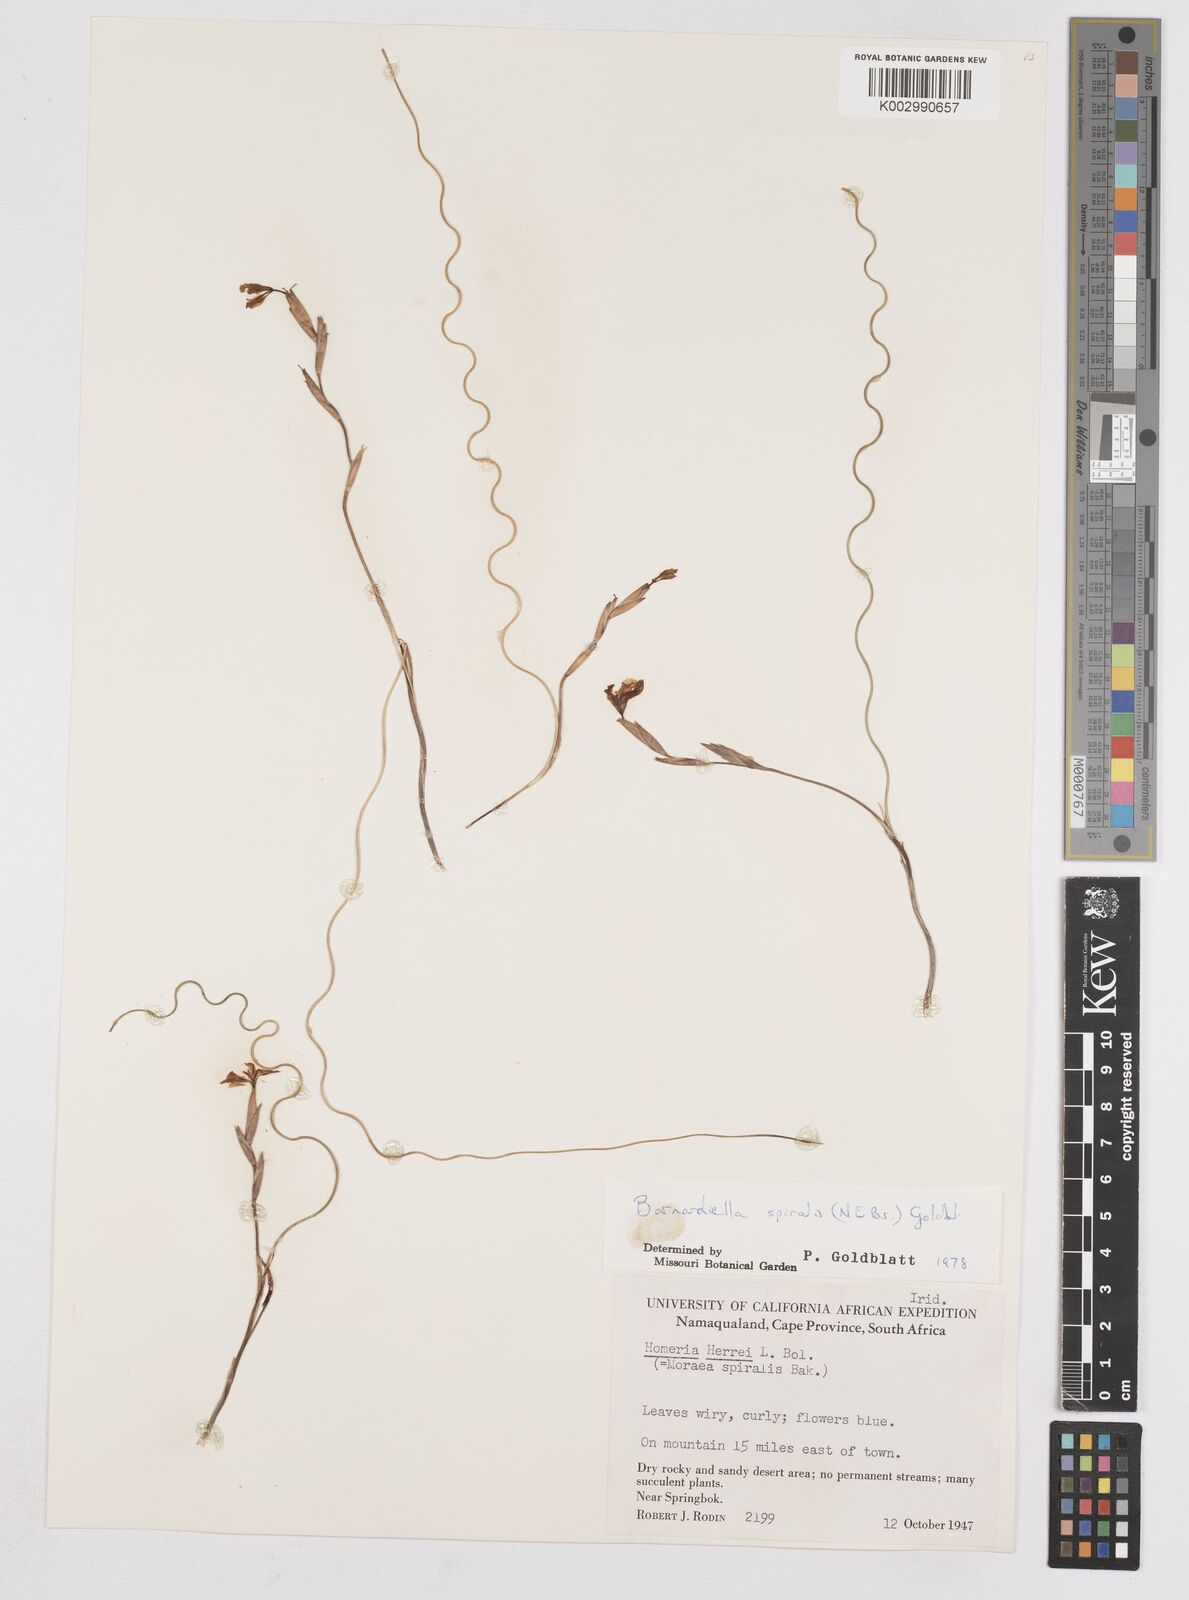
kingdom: Plantae
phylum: Tracheophyta
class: Liliopsida
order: Asparagales
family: Iridaceae
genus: Moraea
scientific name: Moraea herrei
